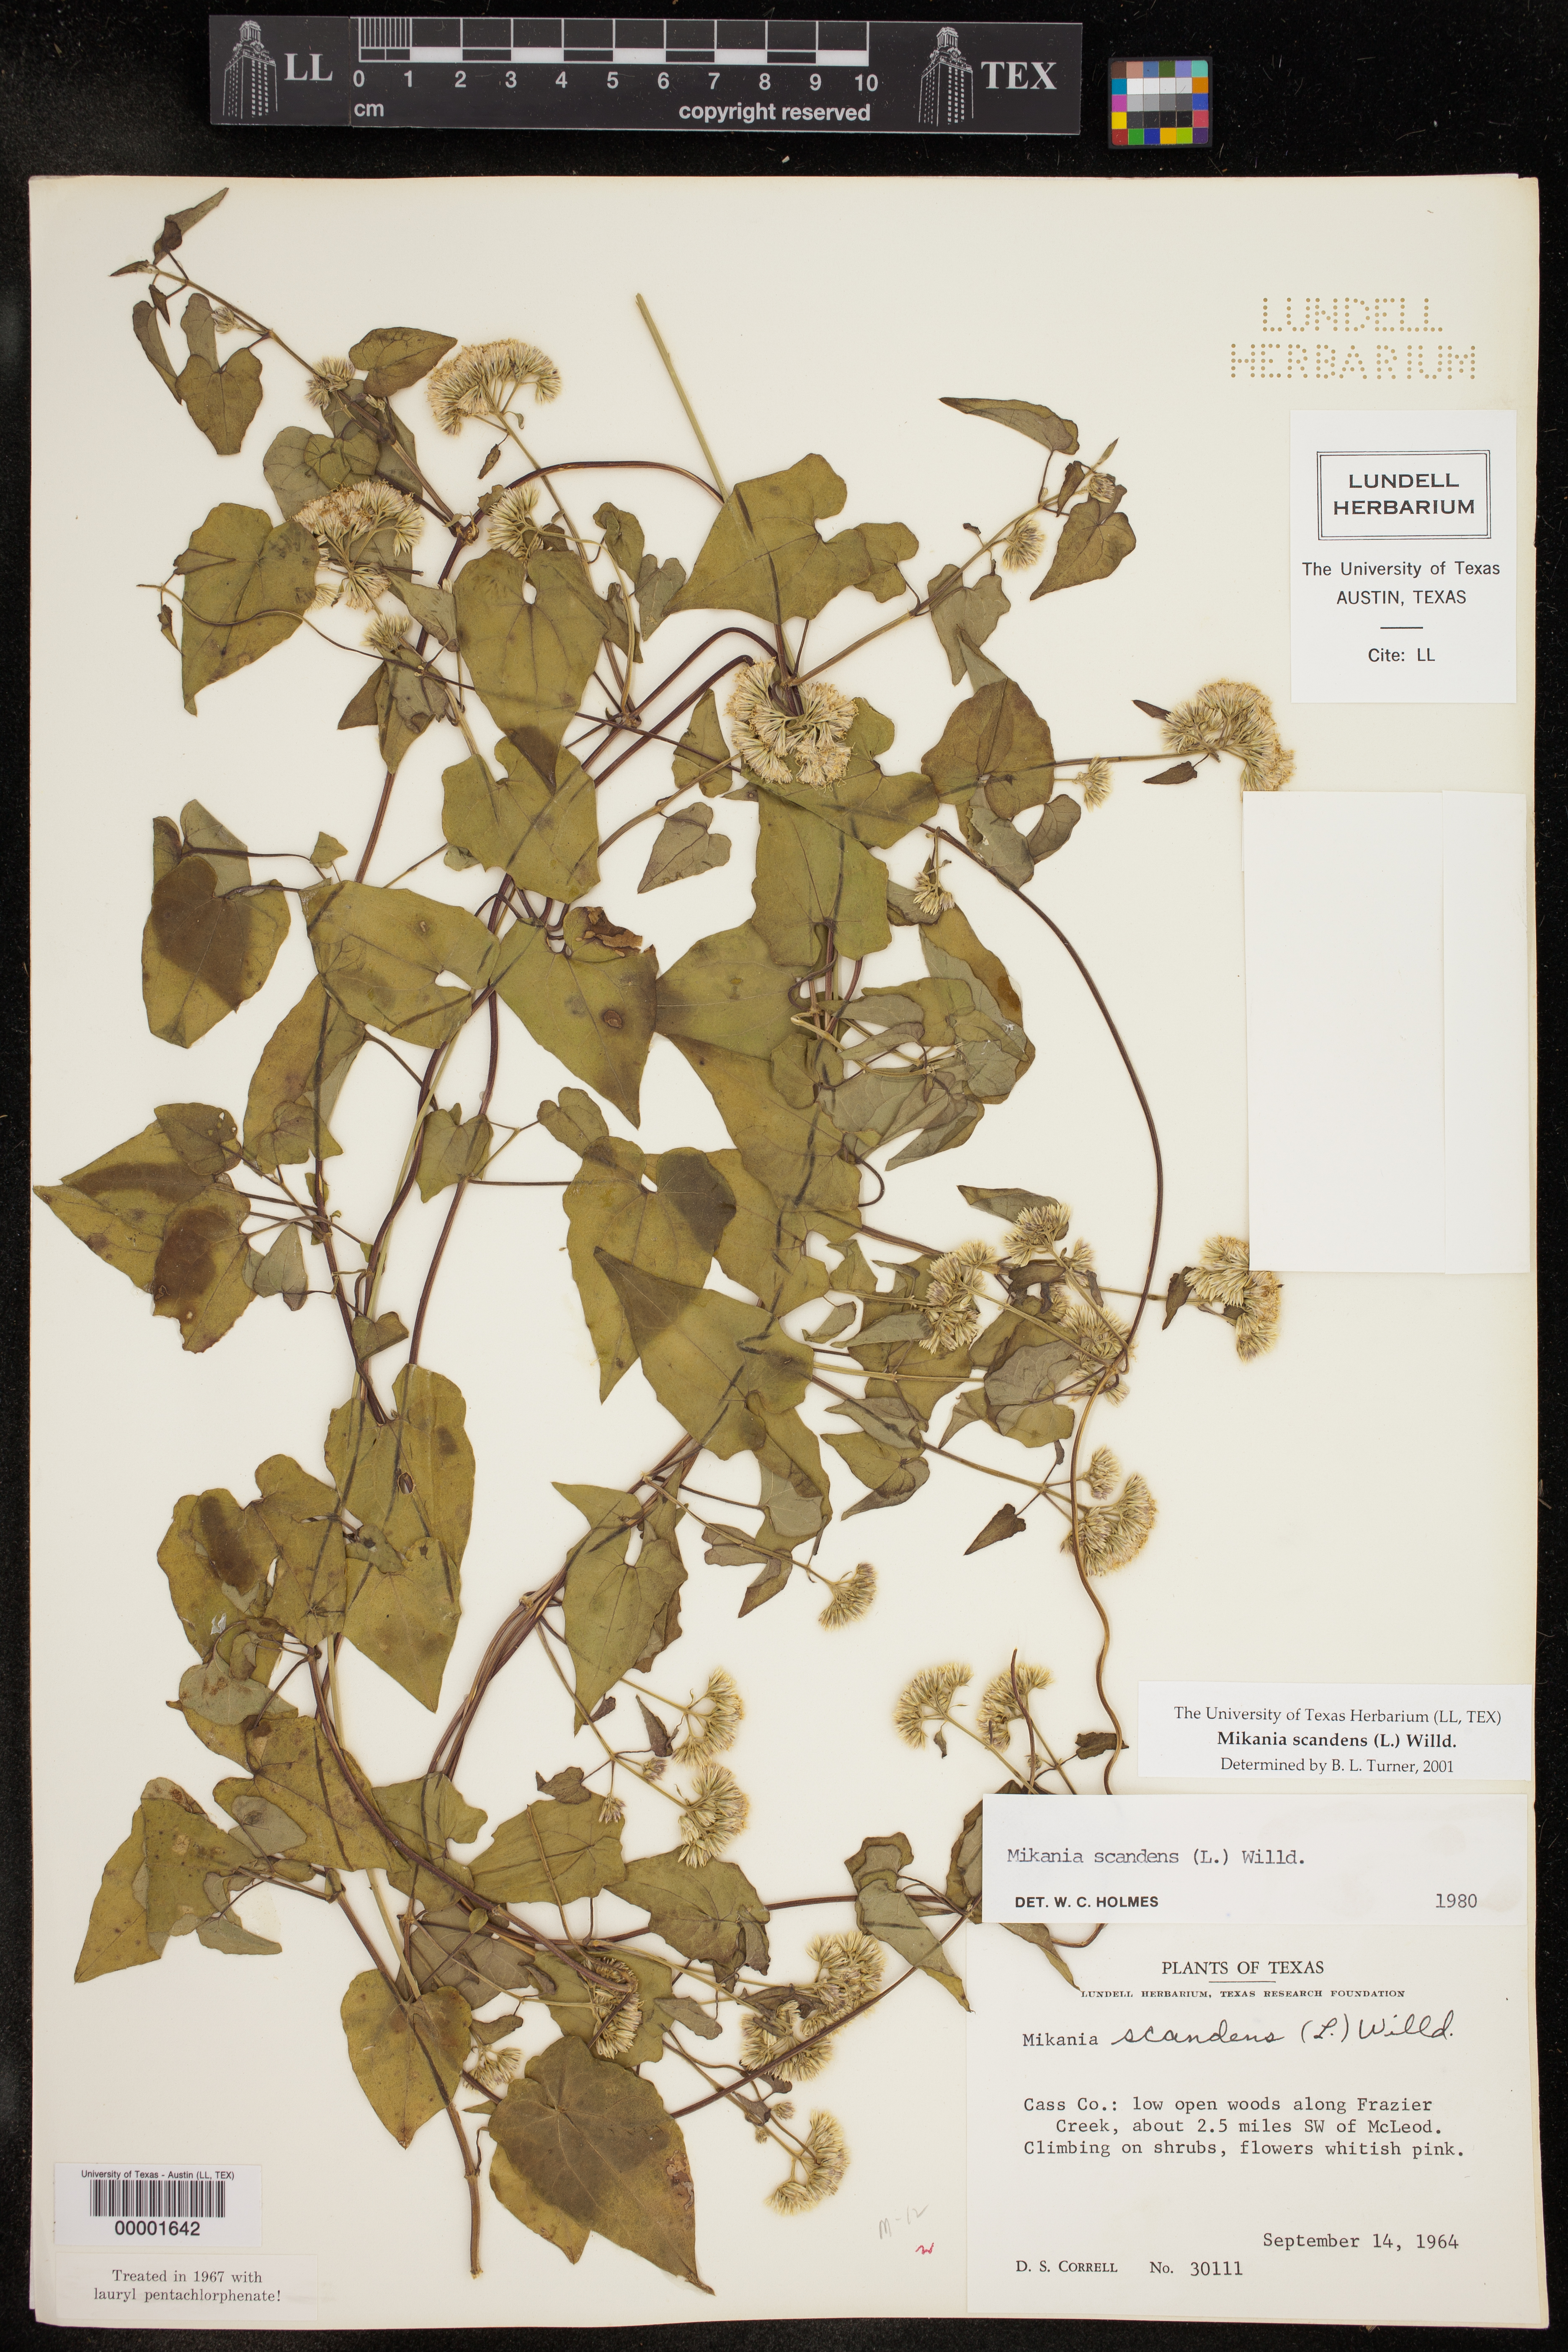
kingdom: Plantae
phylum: Tracheophyta
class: Magnoliopsida
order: Asterales
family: Asteraceae
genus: Mikania
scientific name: Mikania scandens
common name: Climbing hempvine
